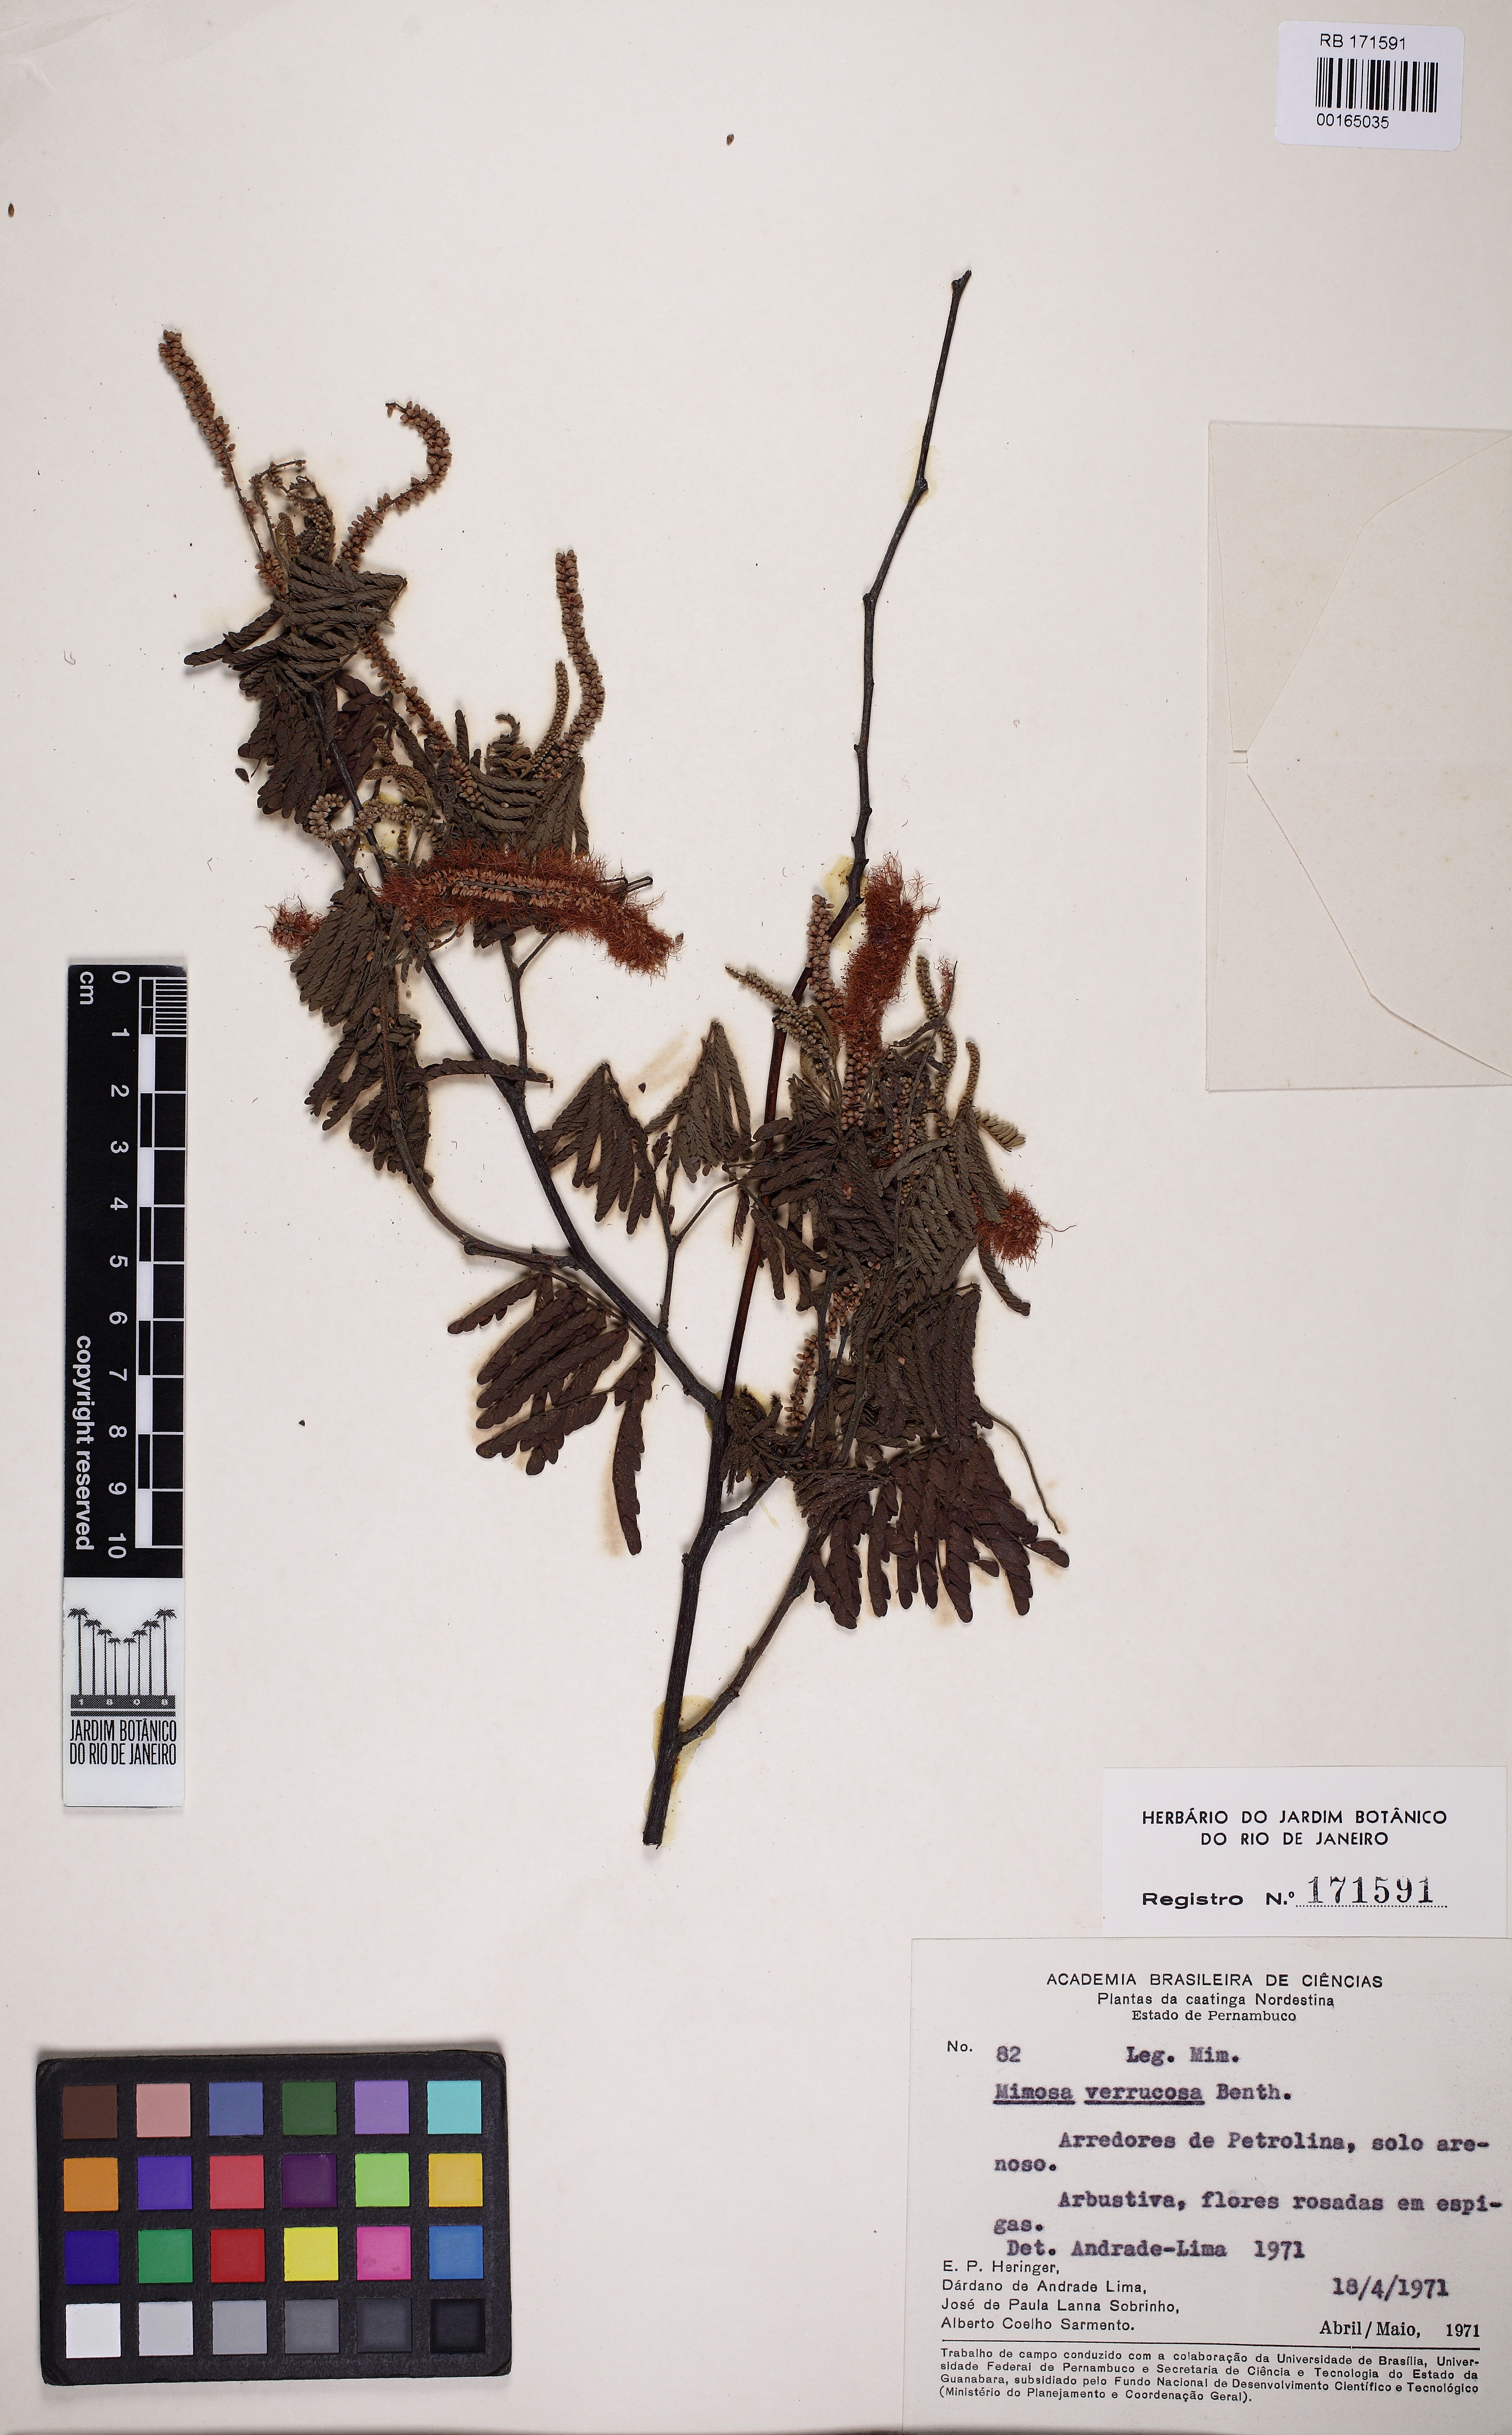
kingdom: Plantae
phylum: Tracheophyta
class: Magnoliopsida
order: Fabales
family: Fabaceae
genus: Mimosa
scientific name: Mimosa verrucosa
